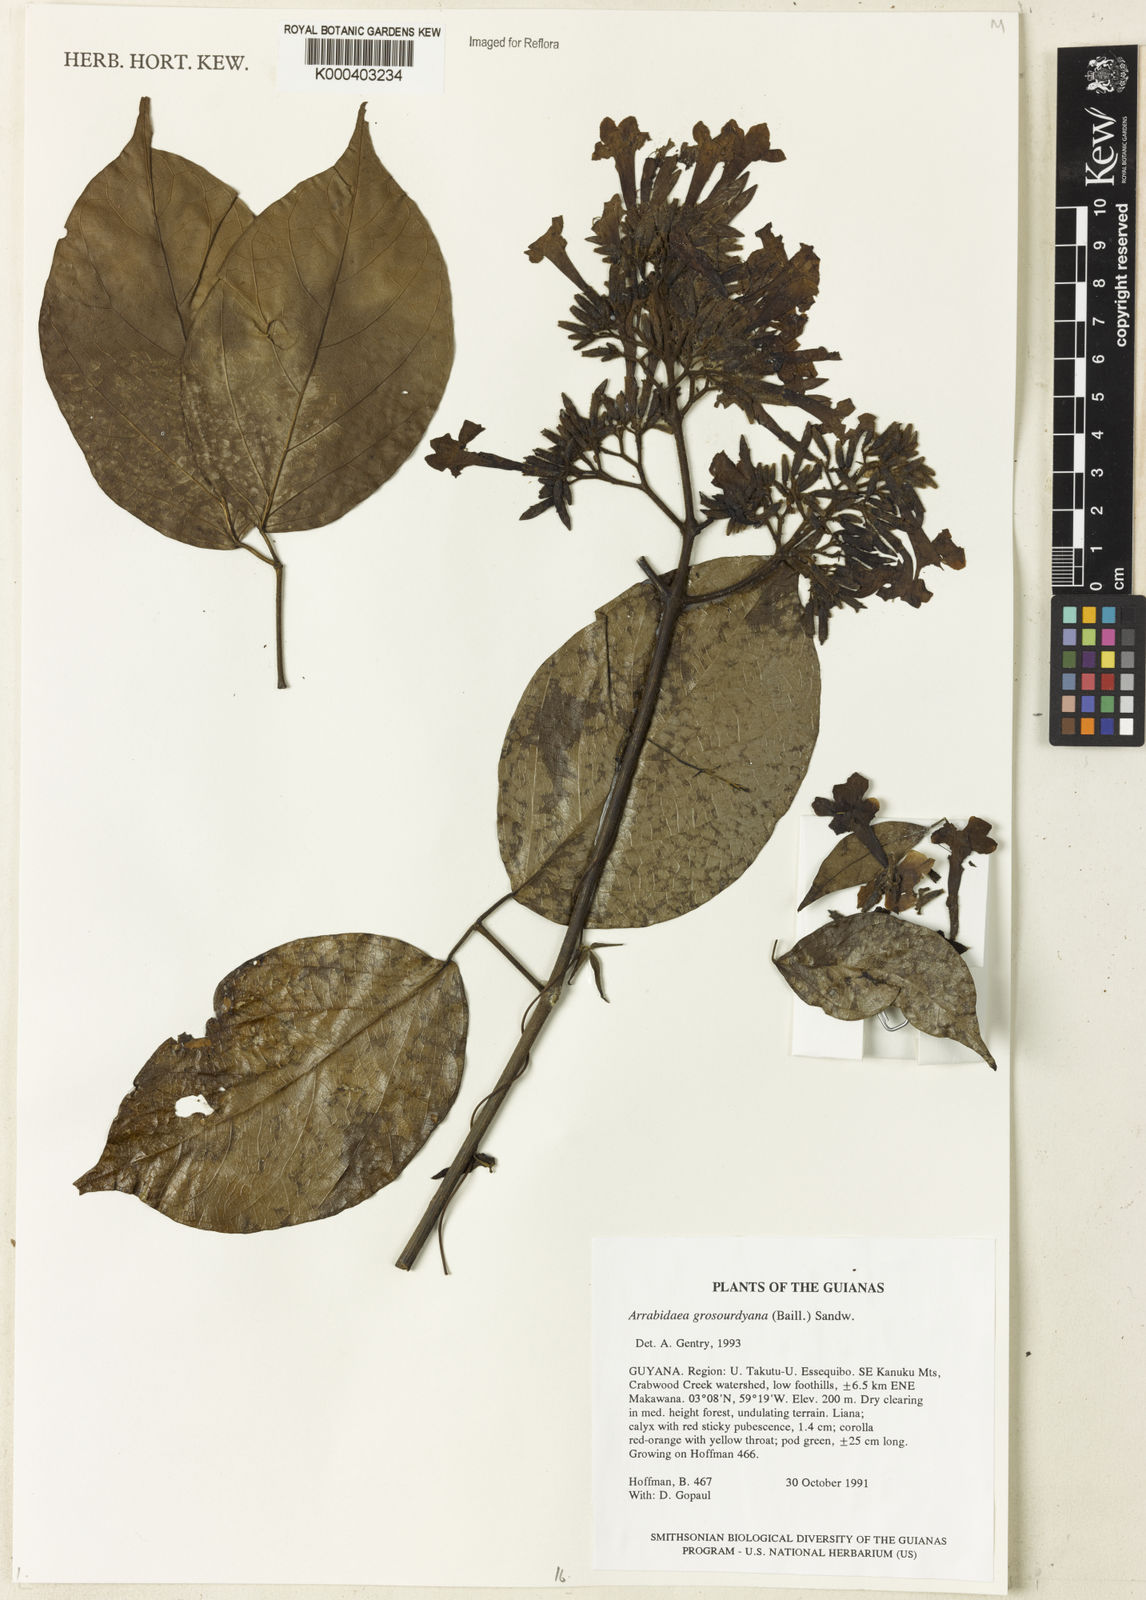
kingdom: Plantae
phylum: Tracheophyta
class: Magnoliopsida
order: Lamiales
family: Bignoniaceae
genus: Fridericia
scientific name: Fridericia grosourdyana
